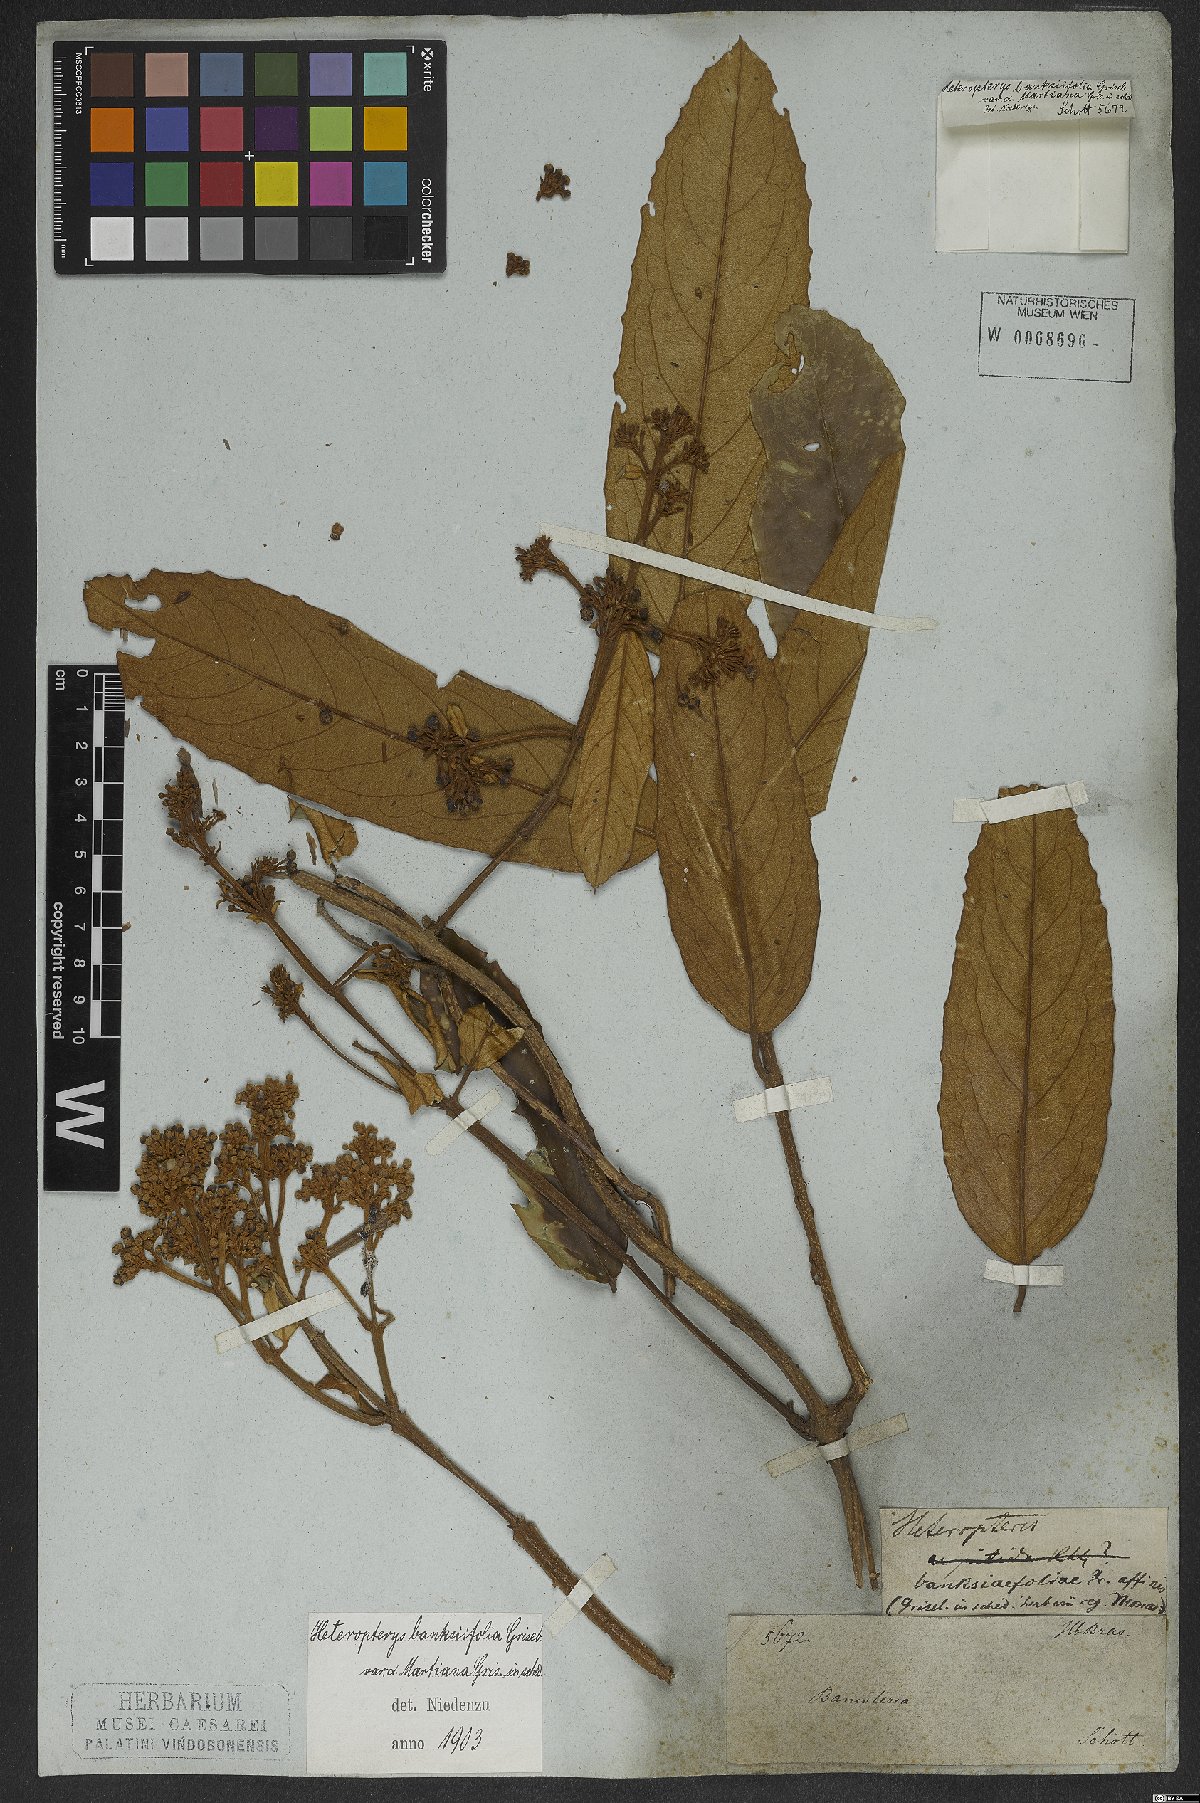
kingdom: Plantae
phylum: Tracheophyta
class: Magnoliopsida
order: Malpighiales
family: Malpighiaceae
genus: Heteropterys
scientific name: Heteropterys banksiifolia
